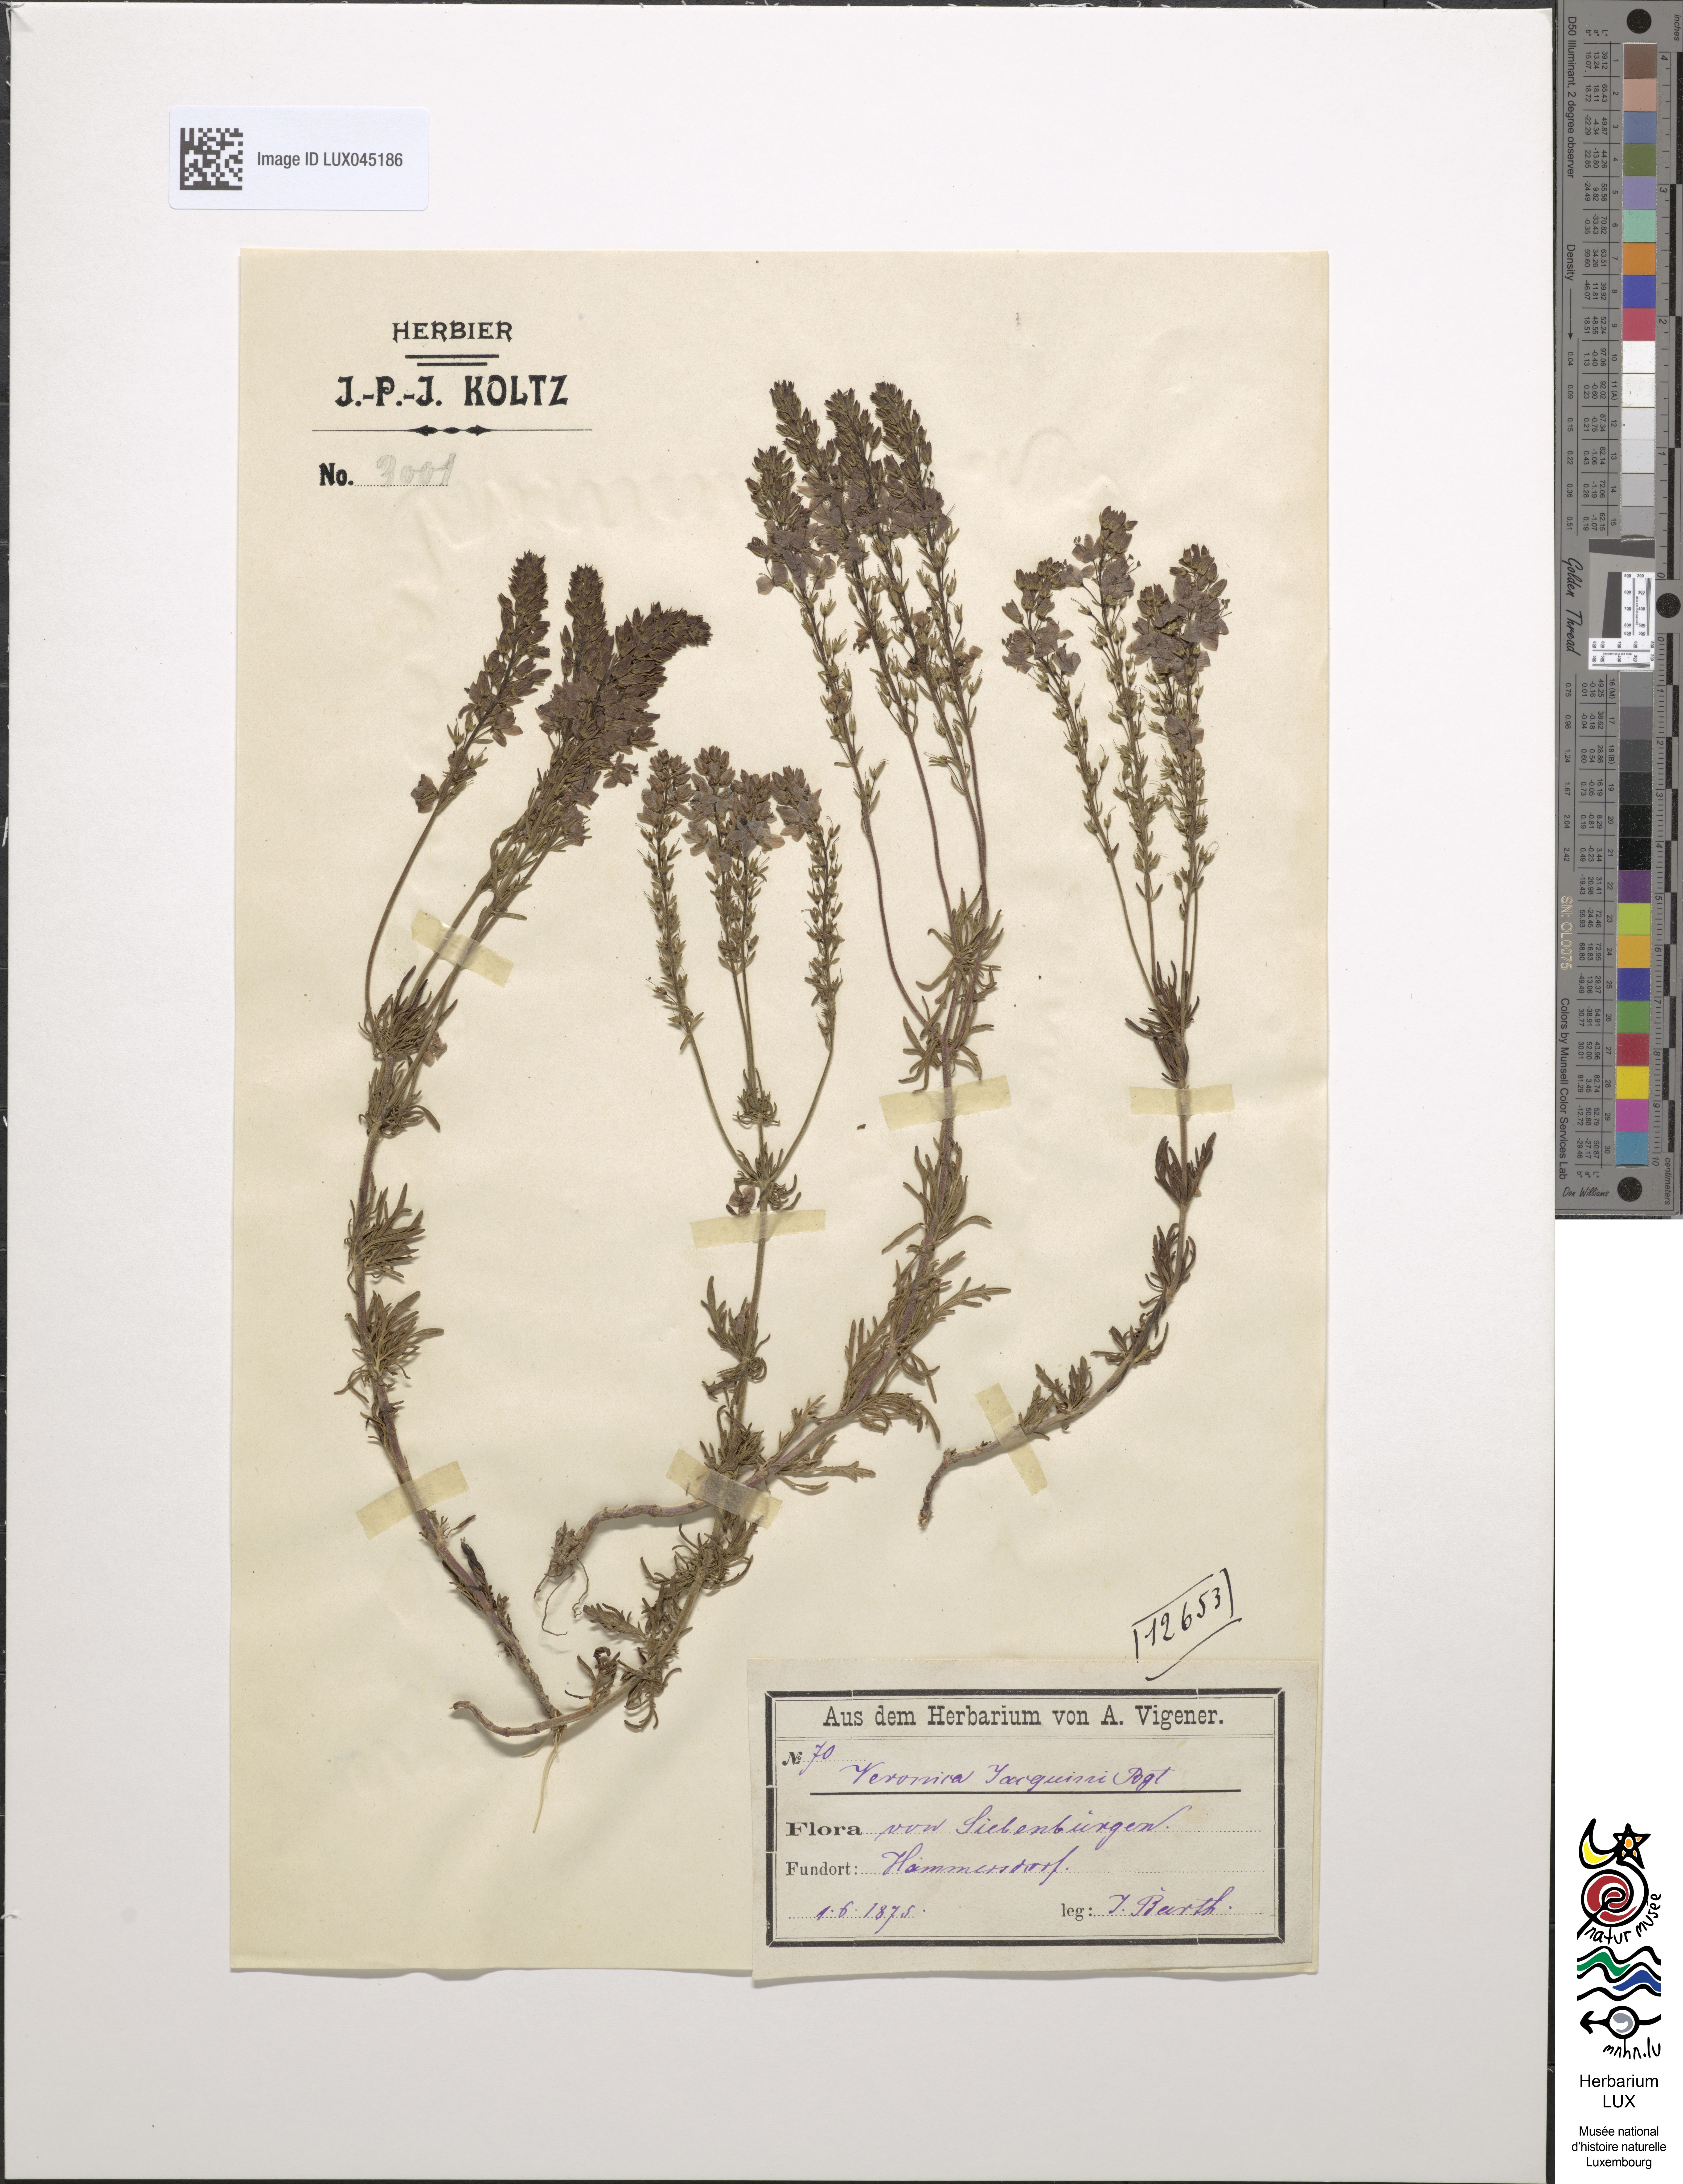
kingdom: Plantae
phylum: Tracheophyta
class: Magnoliopsida
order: Lamiales
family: Plantaginaceae
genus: Veronica
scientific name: Veronica austriaca
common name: Large speedwell
